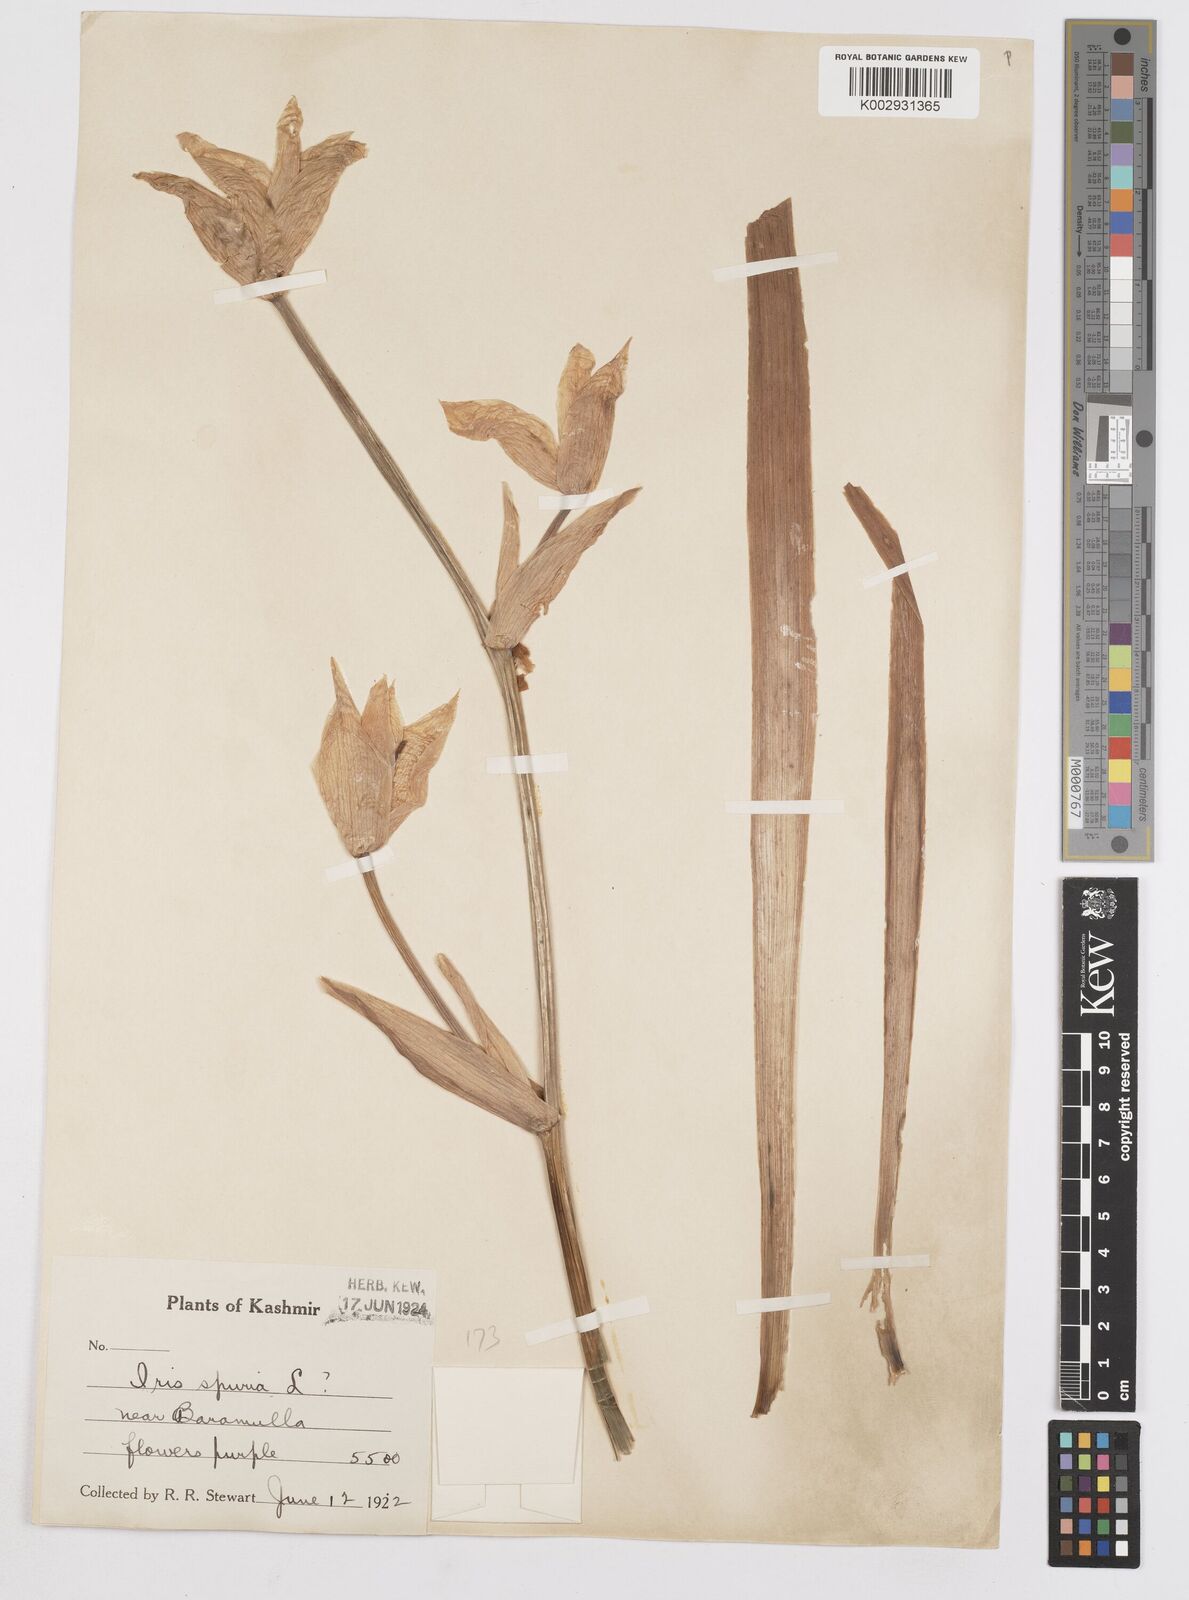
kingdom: Plantae
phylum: Tracheophyta
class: Liliopsida
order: Asparagales
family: Iridaceae
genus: Iris
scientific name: Iris halophila
